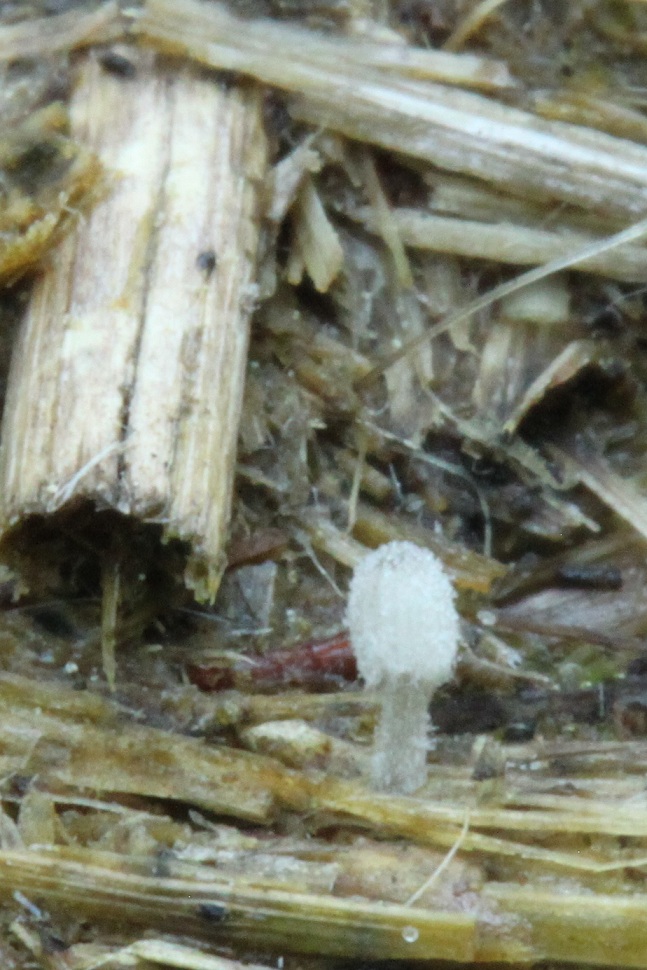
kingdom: Fungi
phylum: Basidiomycota
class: Agaricomycetes
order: Agaricales
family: Psathyrellaceae
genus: Coprinopsis
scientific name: Coprinopsis stercorea
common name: pjusket blækhat
